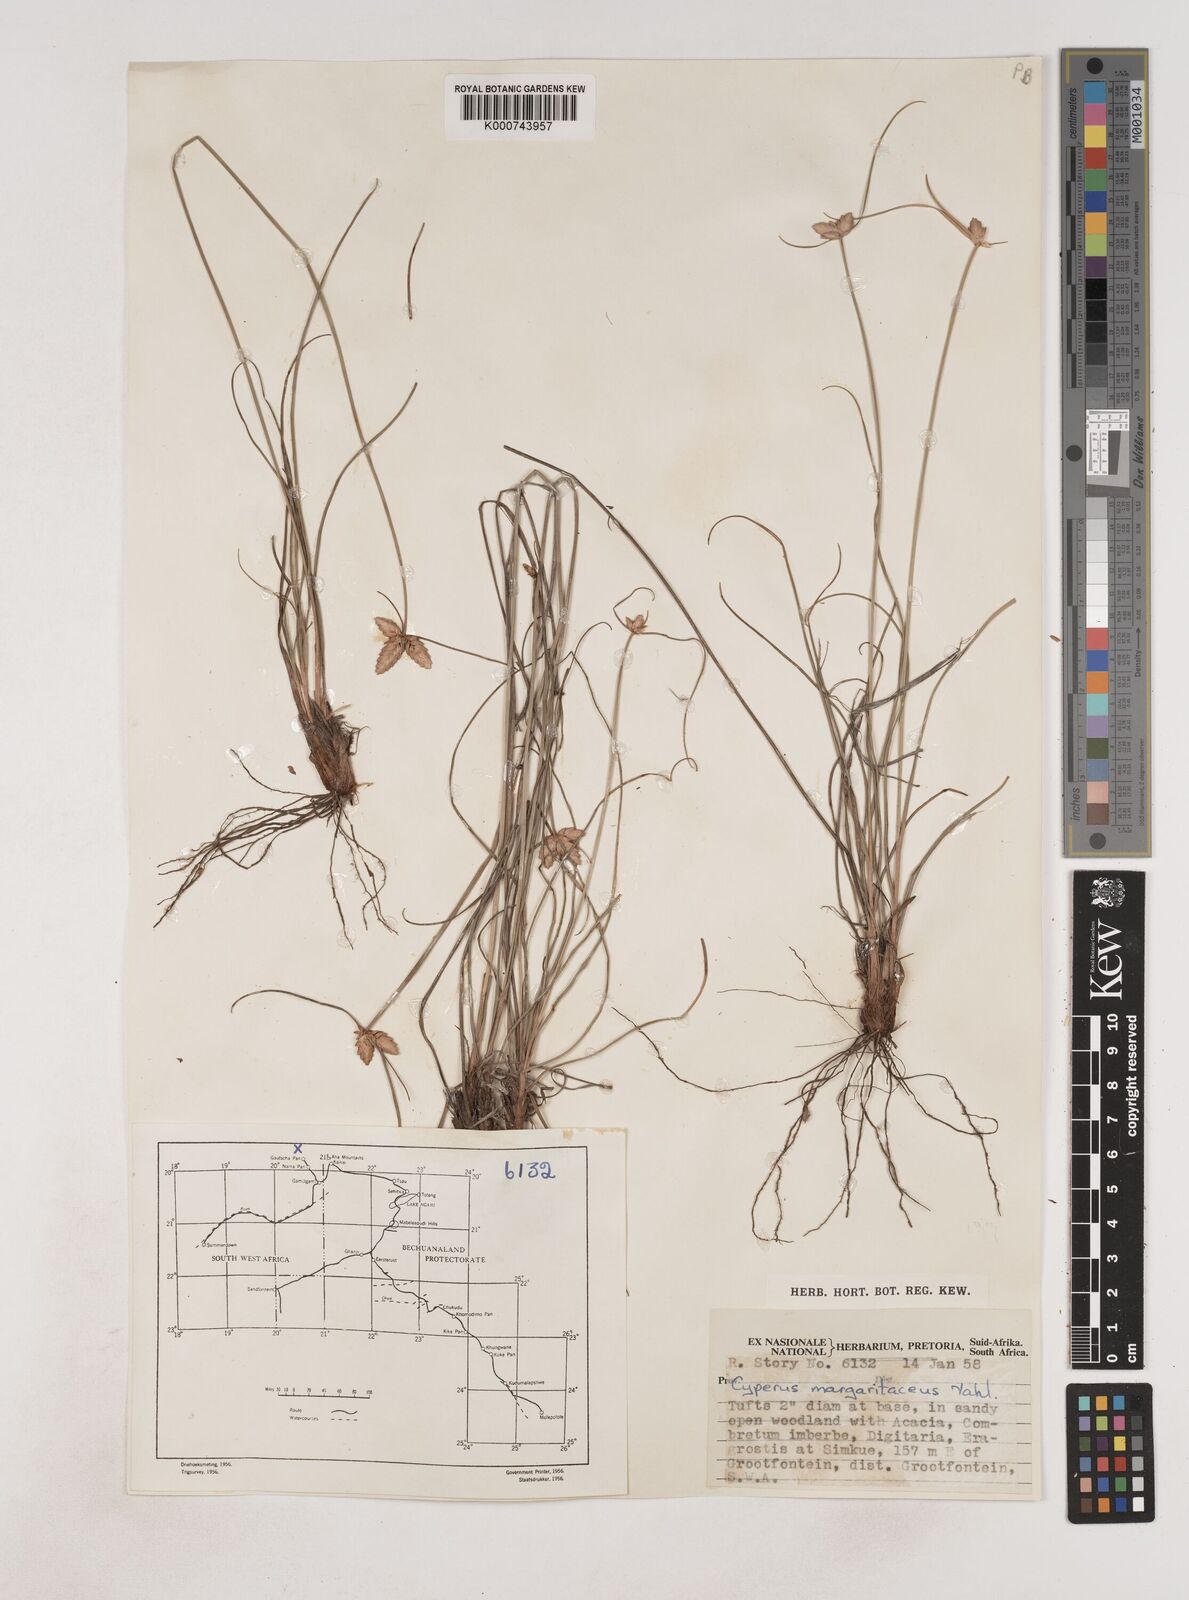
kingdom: Plantae
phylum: Tracheophyta
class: Liliopsida
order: Poales
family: Cyperaceae
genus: Cyperus
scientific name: Cyperus margaritaceus
